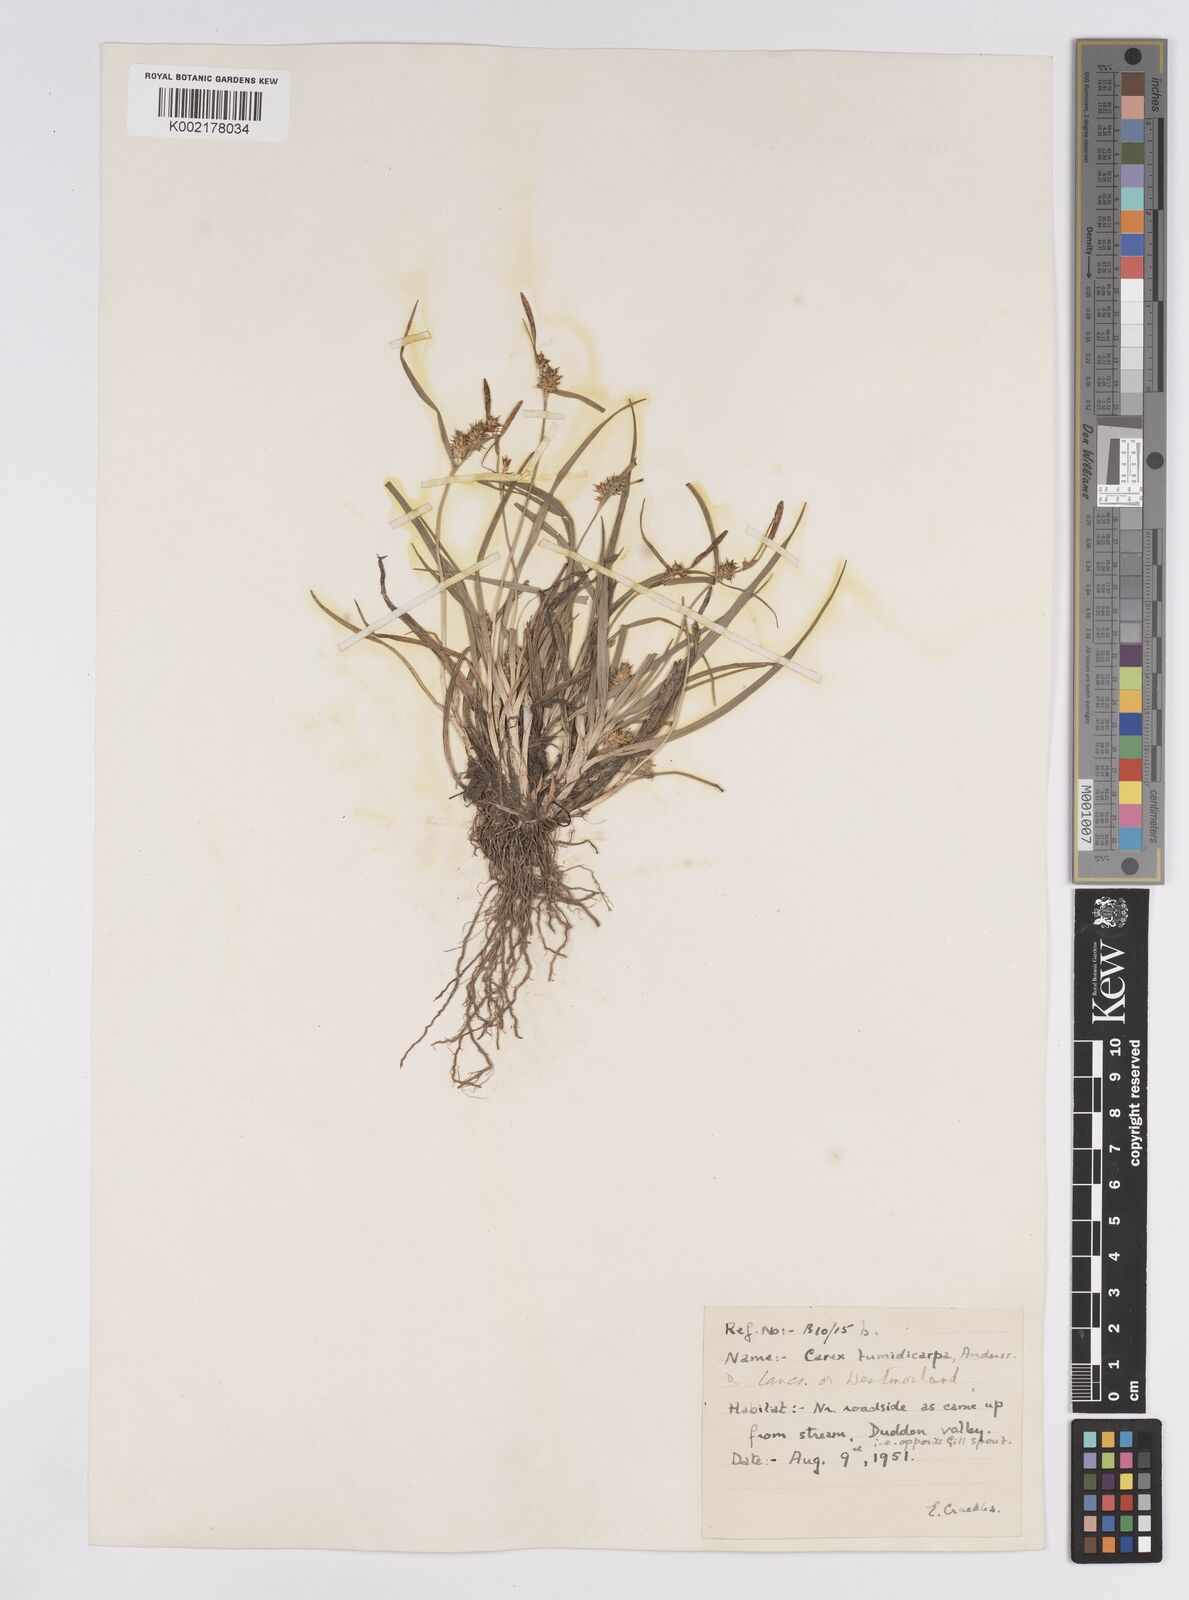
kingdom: Plantae
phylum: Tracheophyta
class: Liliopsida
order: Poales
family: Cyperaceae
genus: Carex
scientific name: Carex demissa
